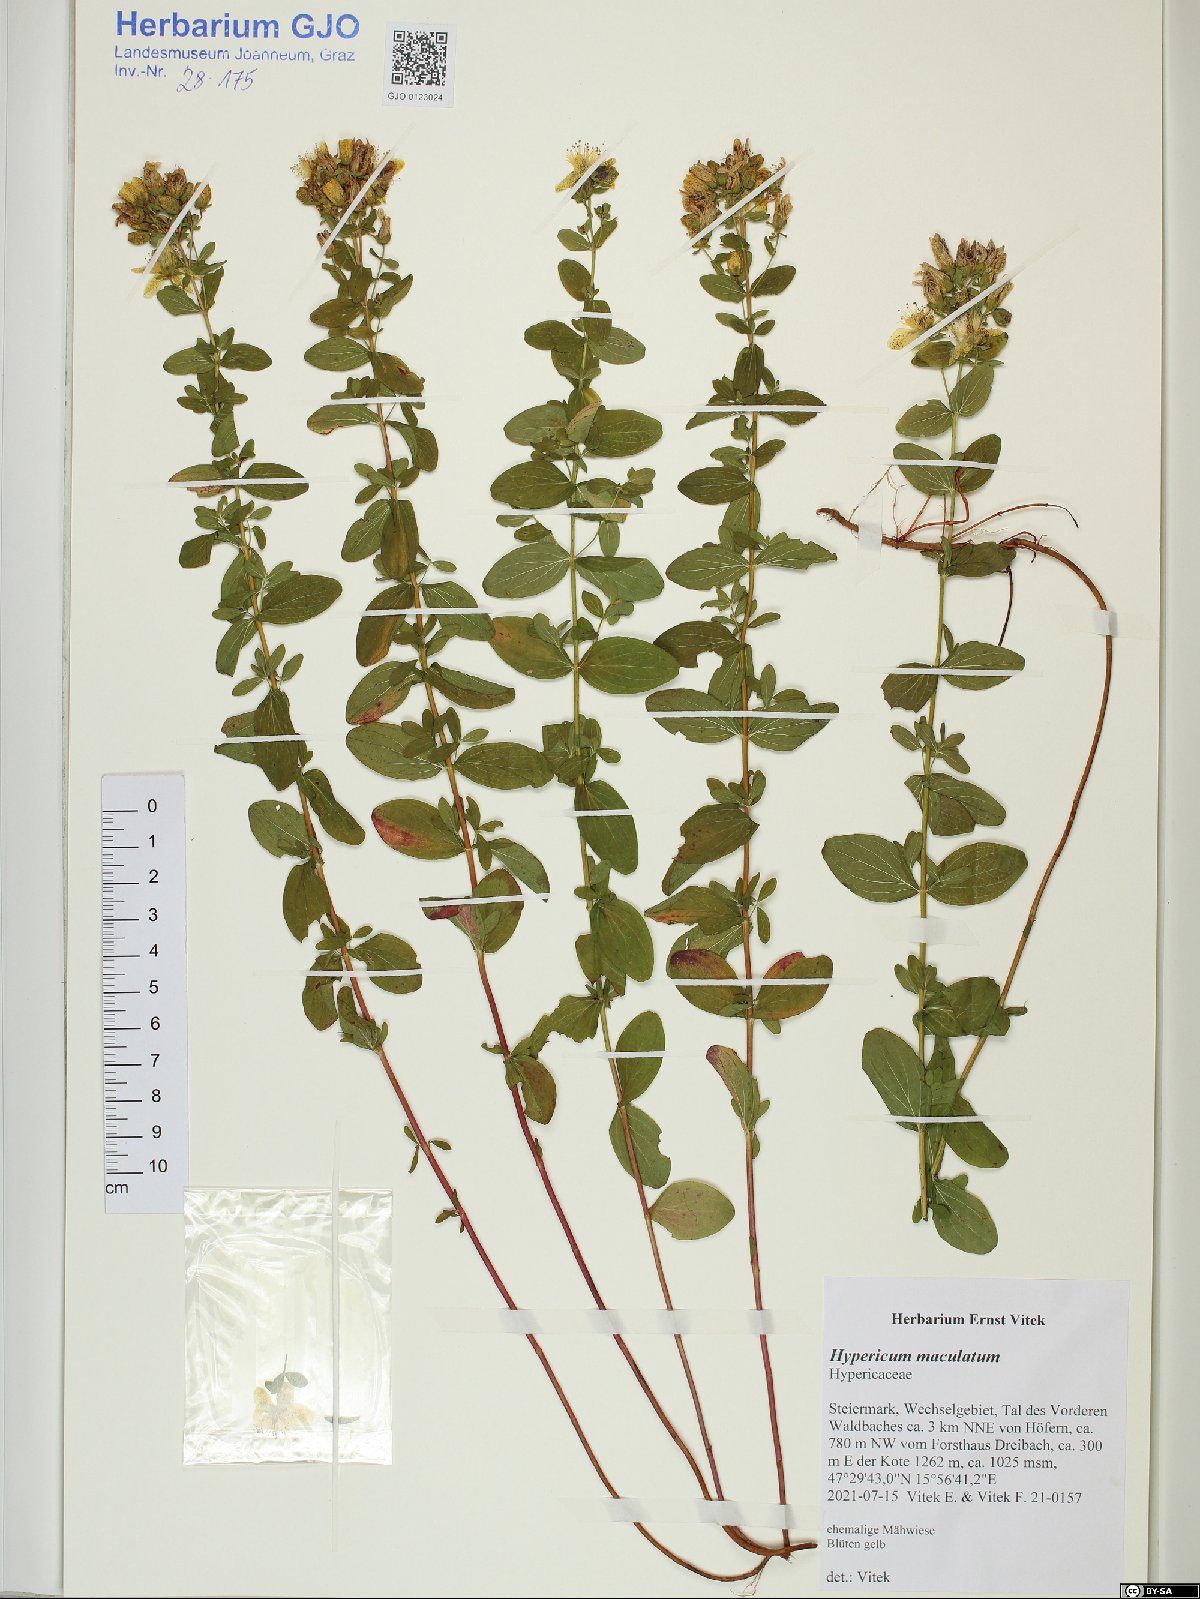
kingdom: Plantae
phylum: Tracheophyta
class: Magnoliopsida
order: Malpighiales
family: Hypericaceae
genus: Hypericum
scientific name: Hypericum maculatum
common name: Imperforate st. john's-wort
